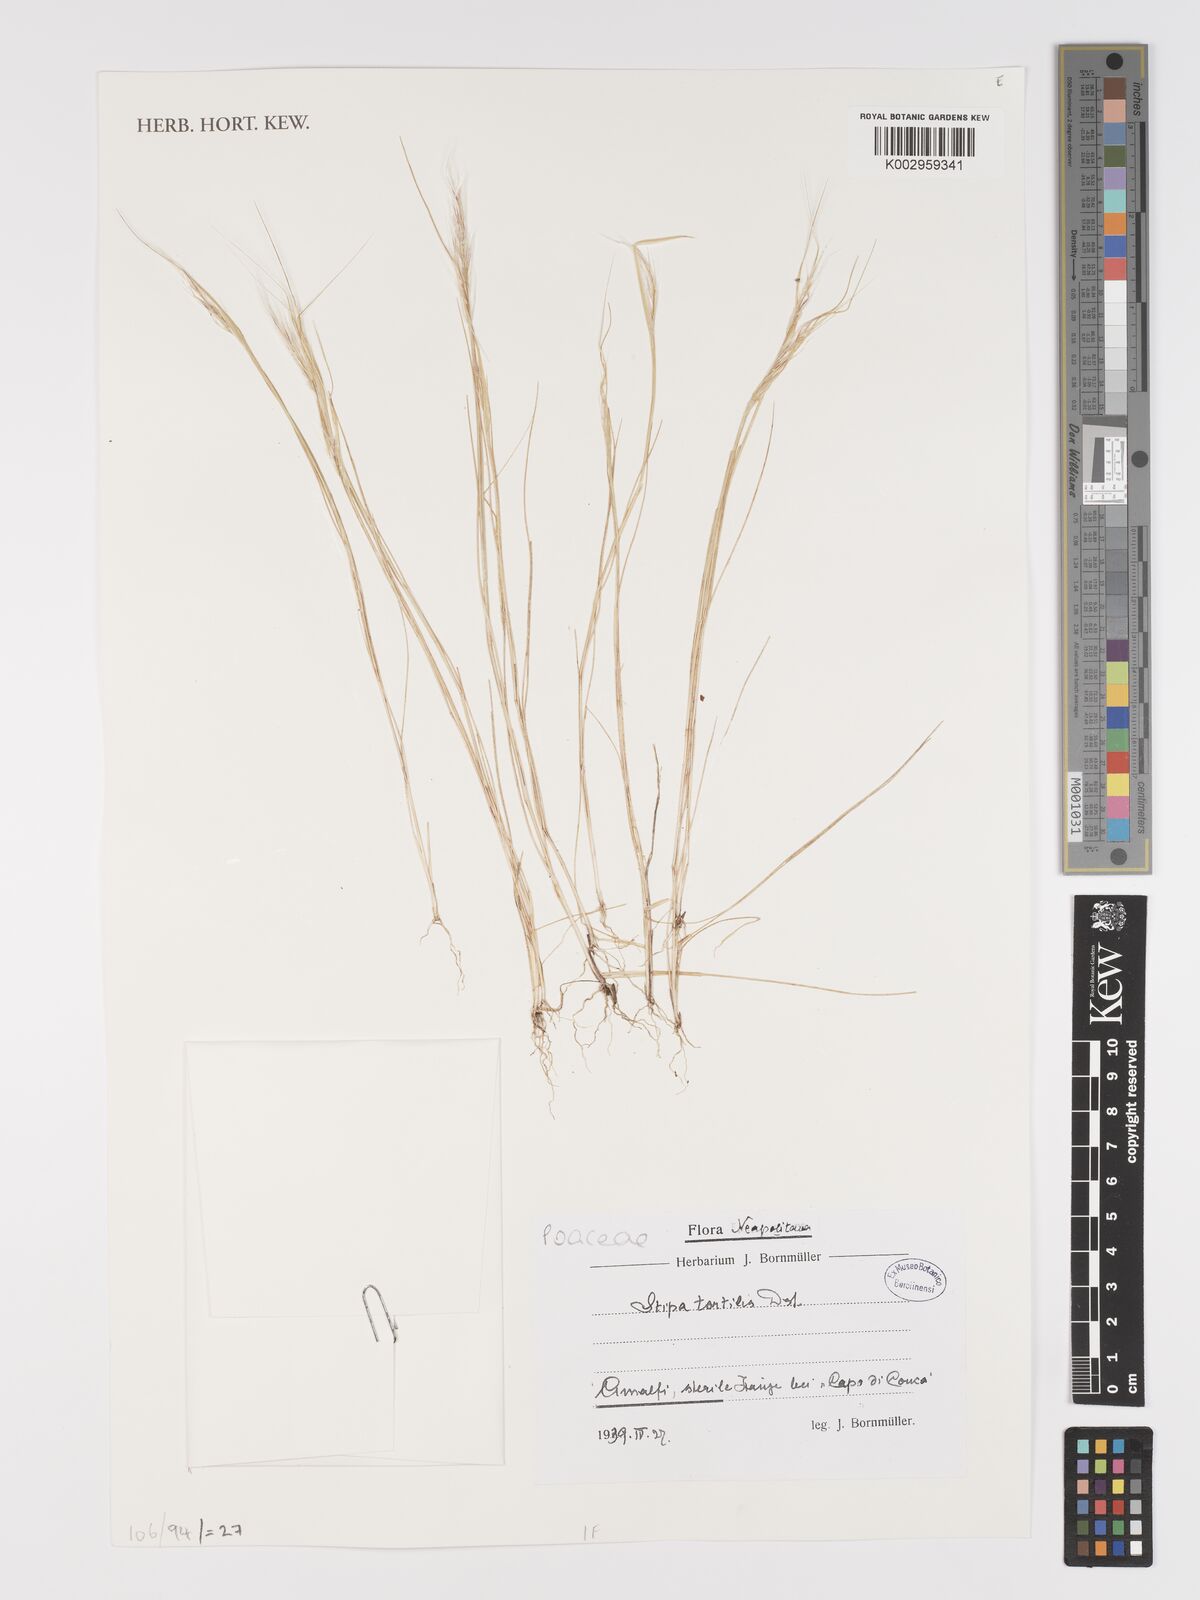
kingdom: Plantae
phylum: Tracheophyta
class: Liliopsida
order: Poales
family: Poaceae
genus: Stipellula
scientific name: Stipellula capensis
